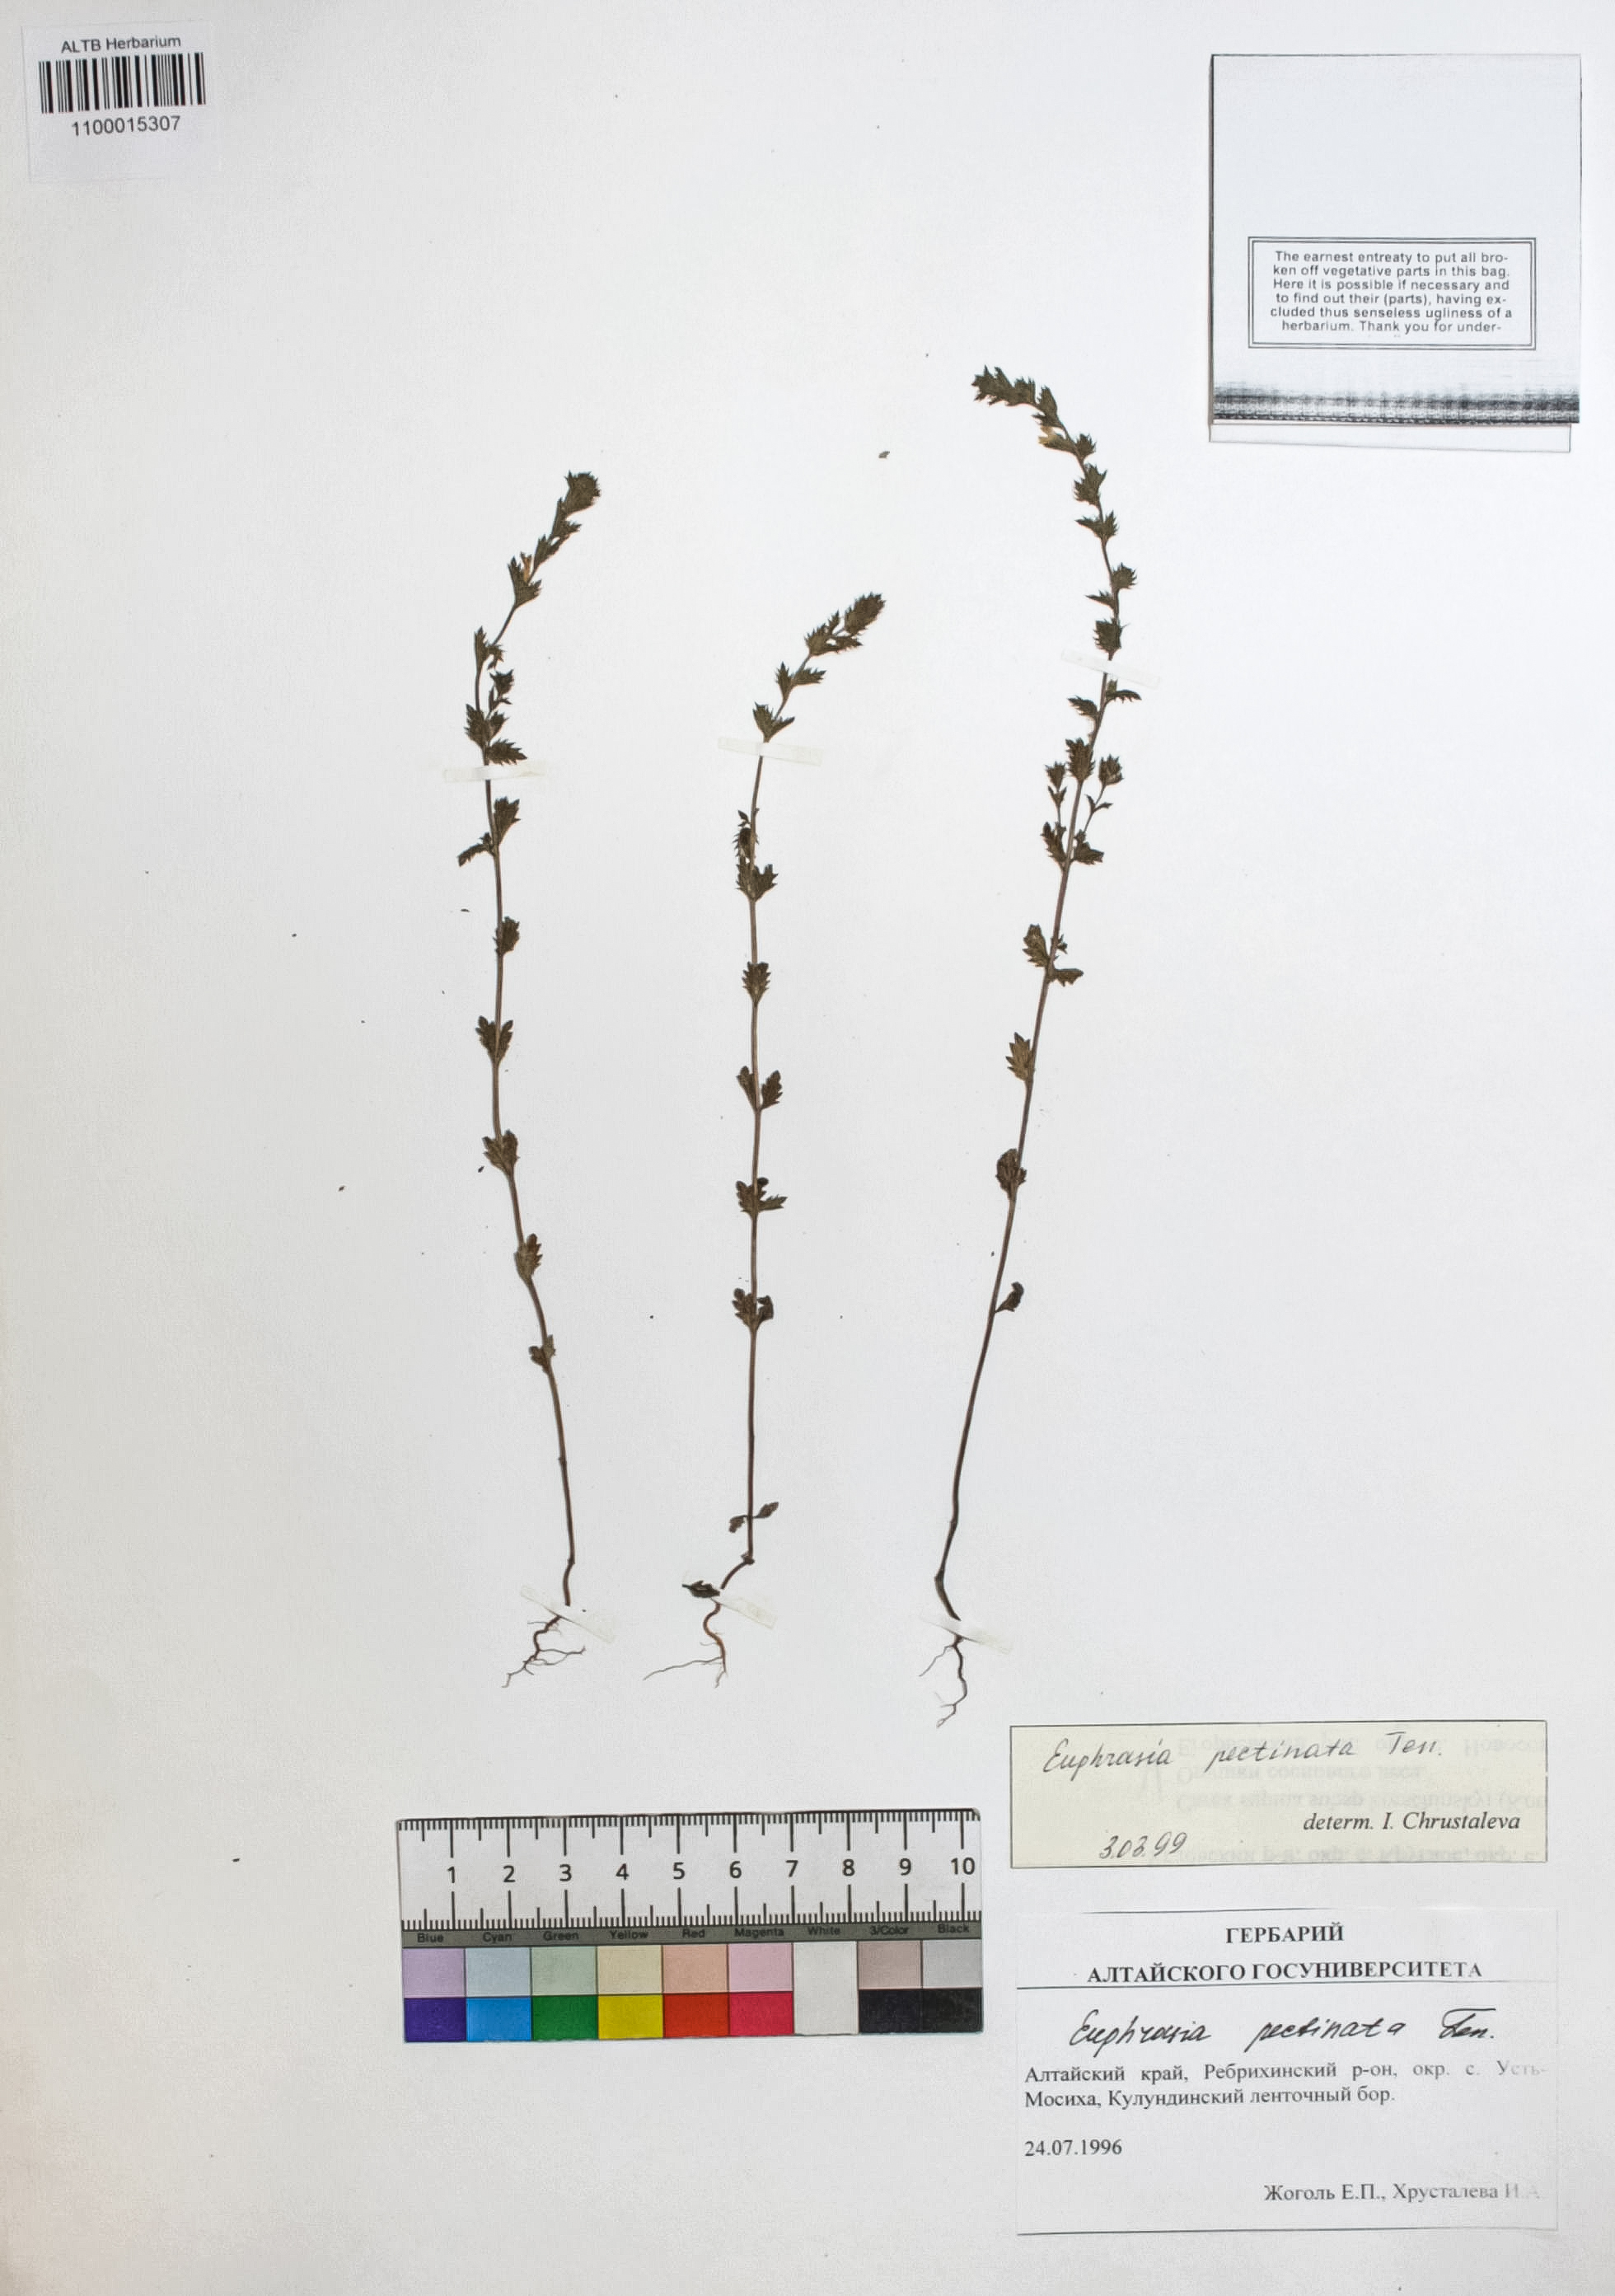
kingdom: Plantae
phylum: Tracheophyta
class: Magnoliopsida
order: Lamiales
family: Orobanchaceae
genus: Euphrasia
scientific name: Euphrasia pectinata
